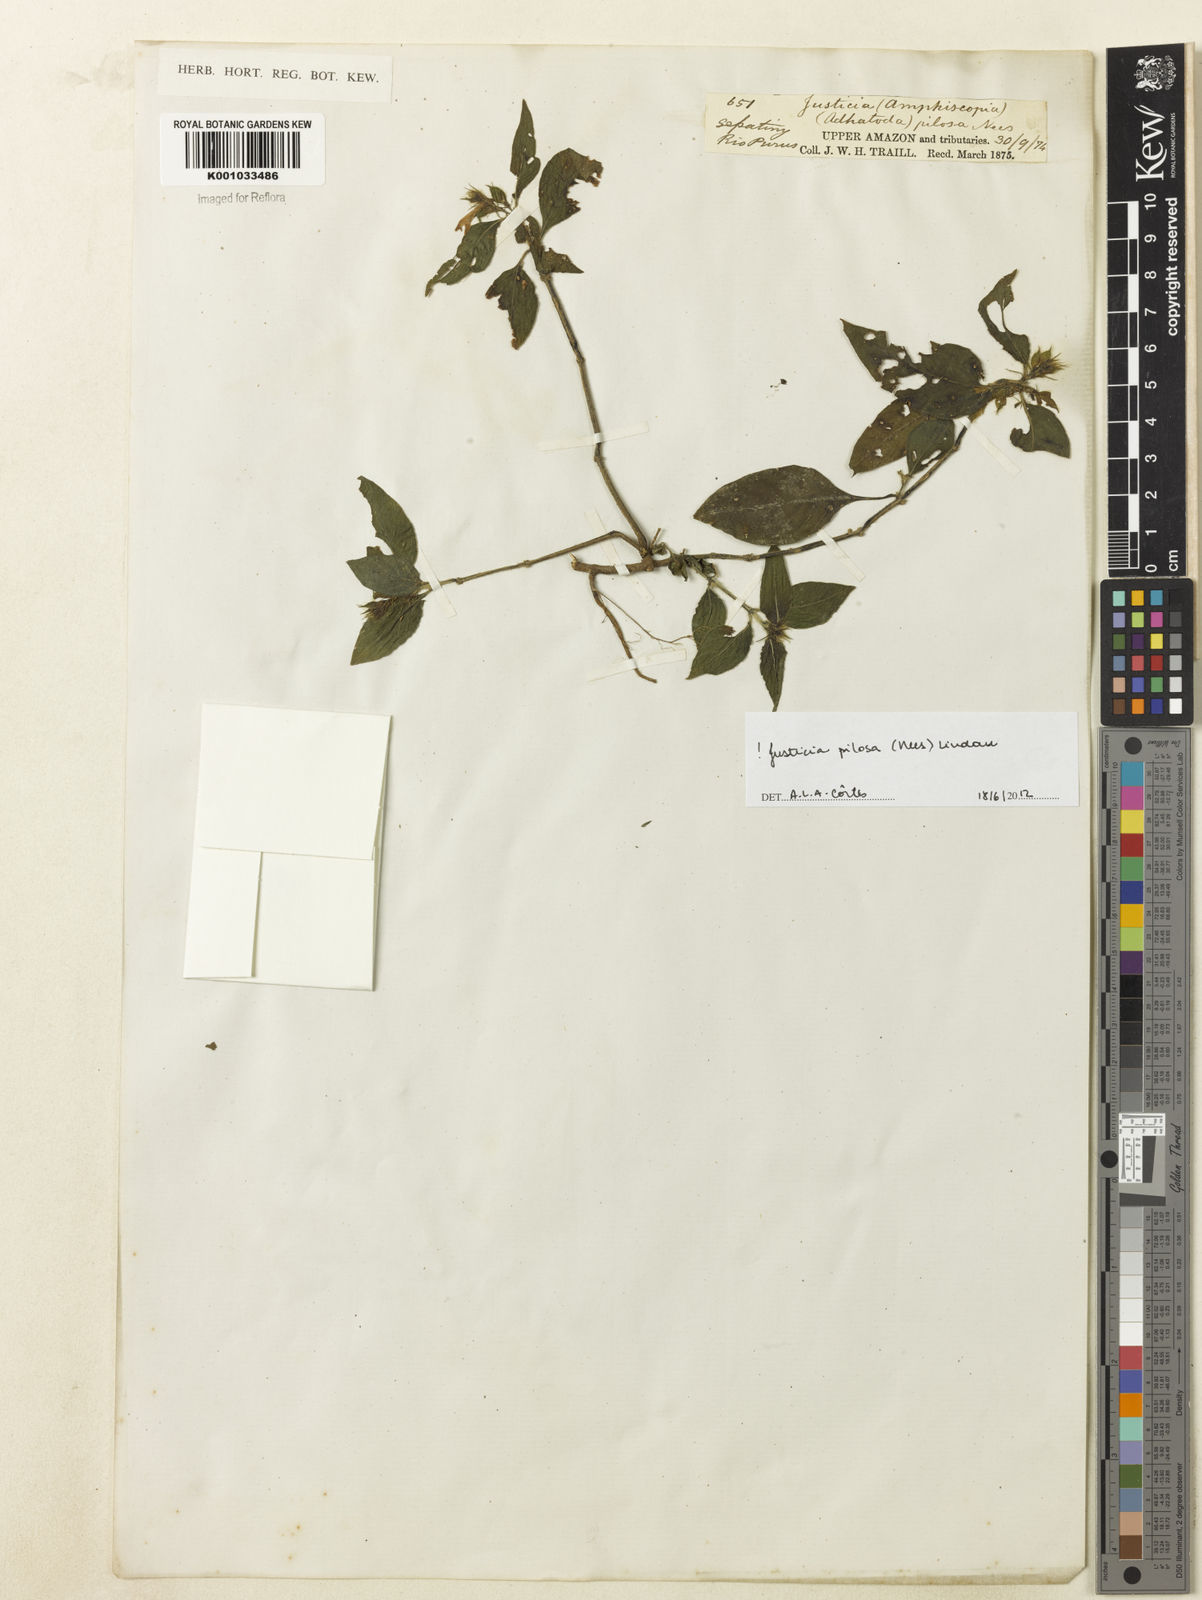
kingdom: Plantae
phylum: Tracheophyta
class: Magnoliopsida
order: Lamiales
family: Acanthaceae
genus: Justicia
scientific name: Justicia pilosa
